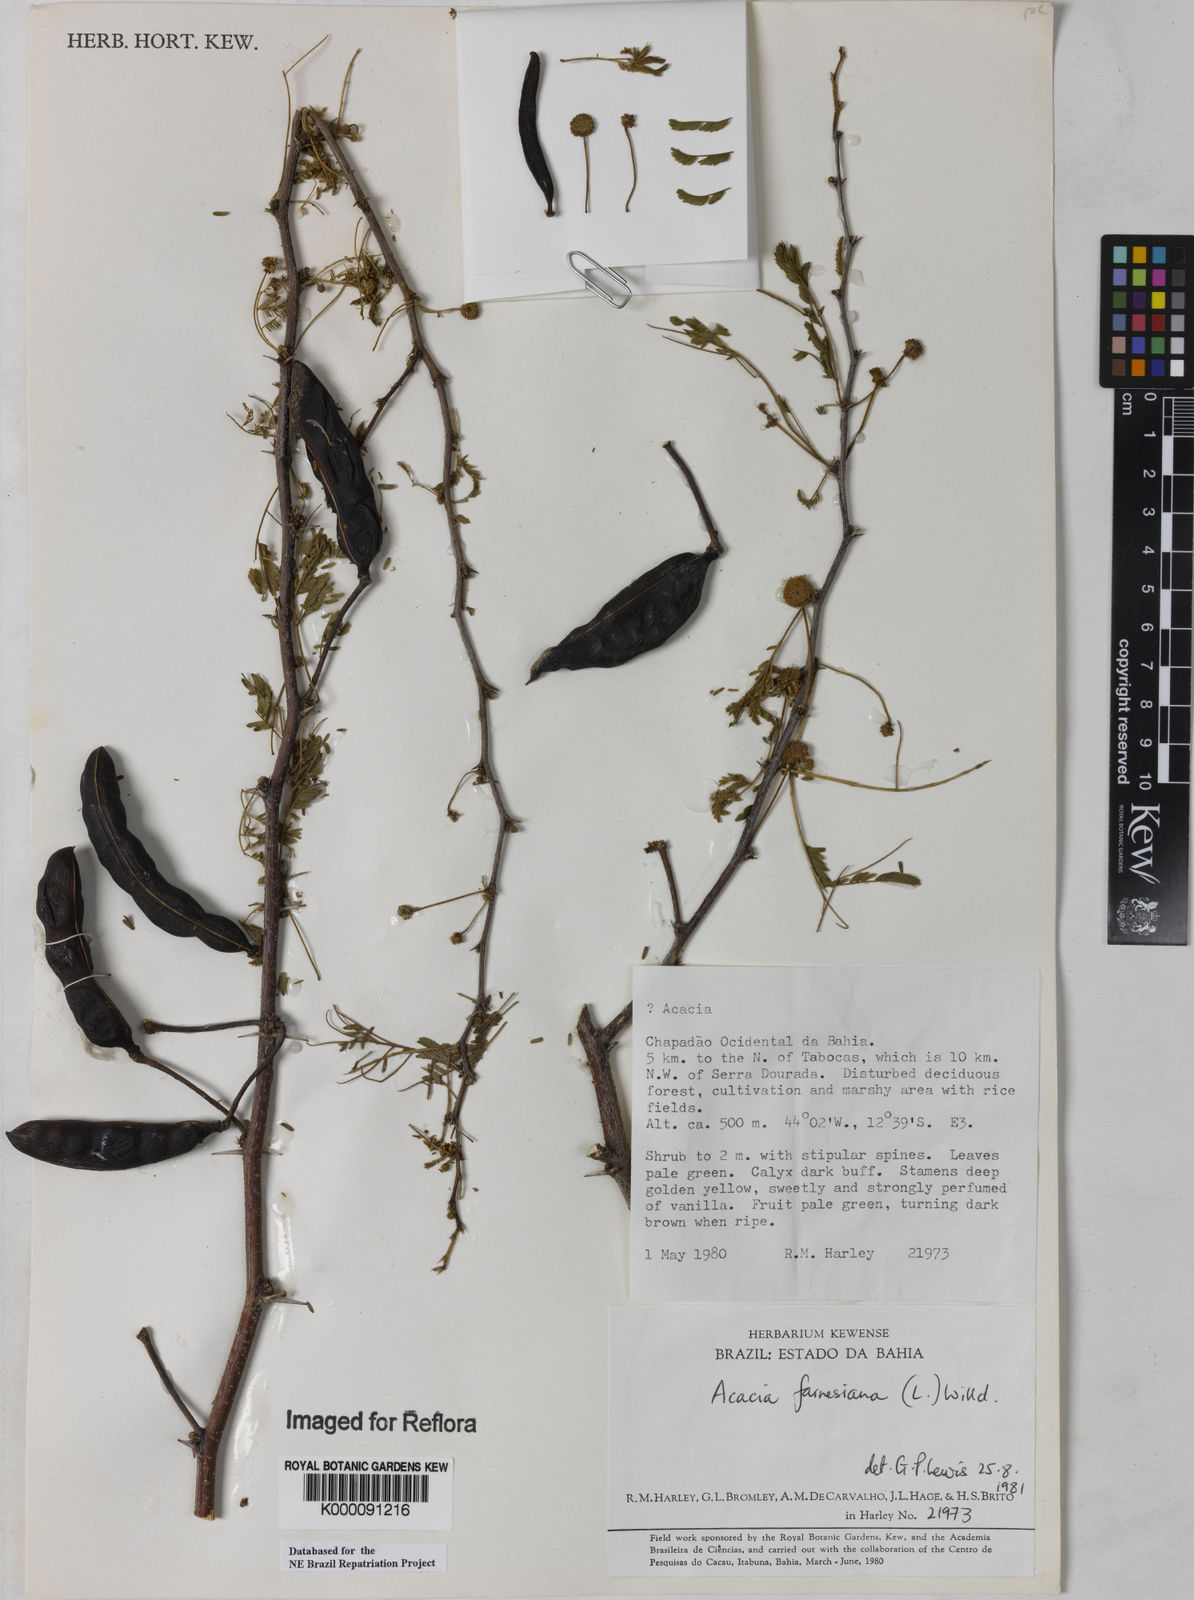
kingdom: Plantae
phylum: Tracheophyta
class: Magnoliopsida
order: Fabales
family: Fabaceae
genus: Vachellia
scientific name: Vachellia farnesiana
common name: Sweet acacia
